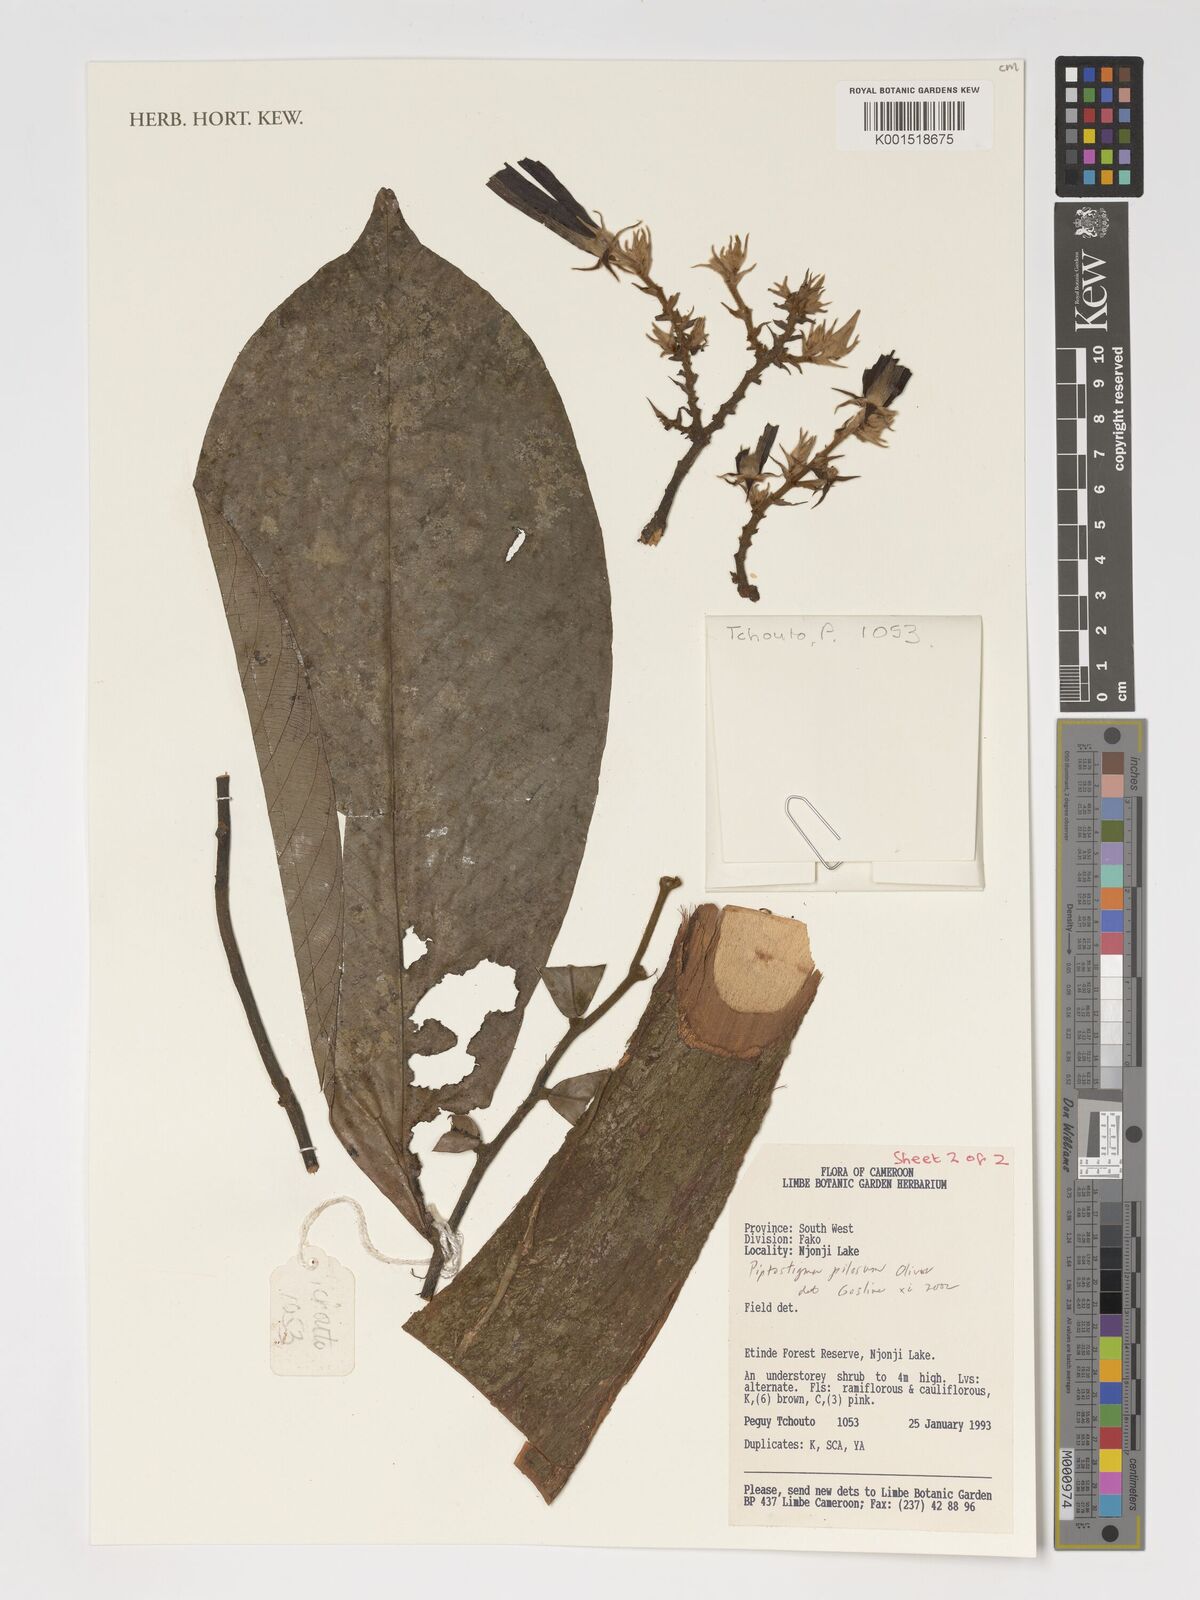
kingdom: Plantae
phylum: Tracheophyta
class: Magnoliopsida
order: Magnoliales
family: Annonaceae
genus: Piptostigma
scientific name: Piptostigma pilosum
